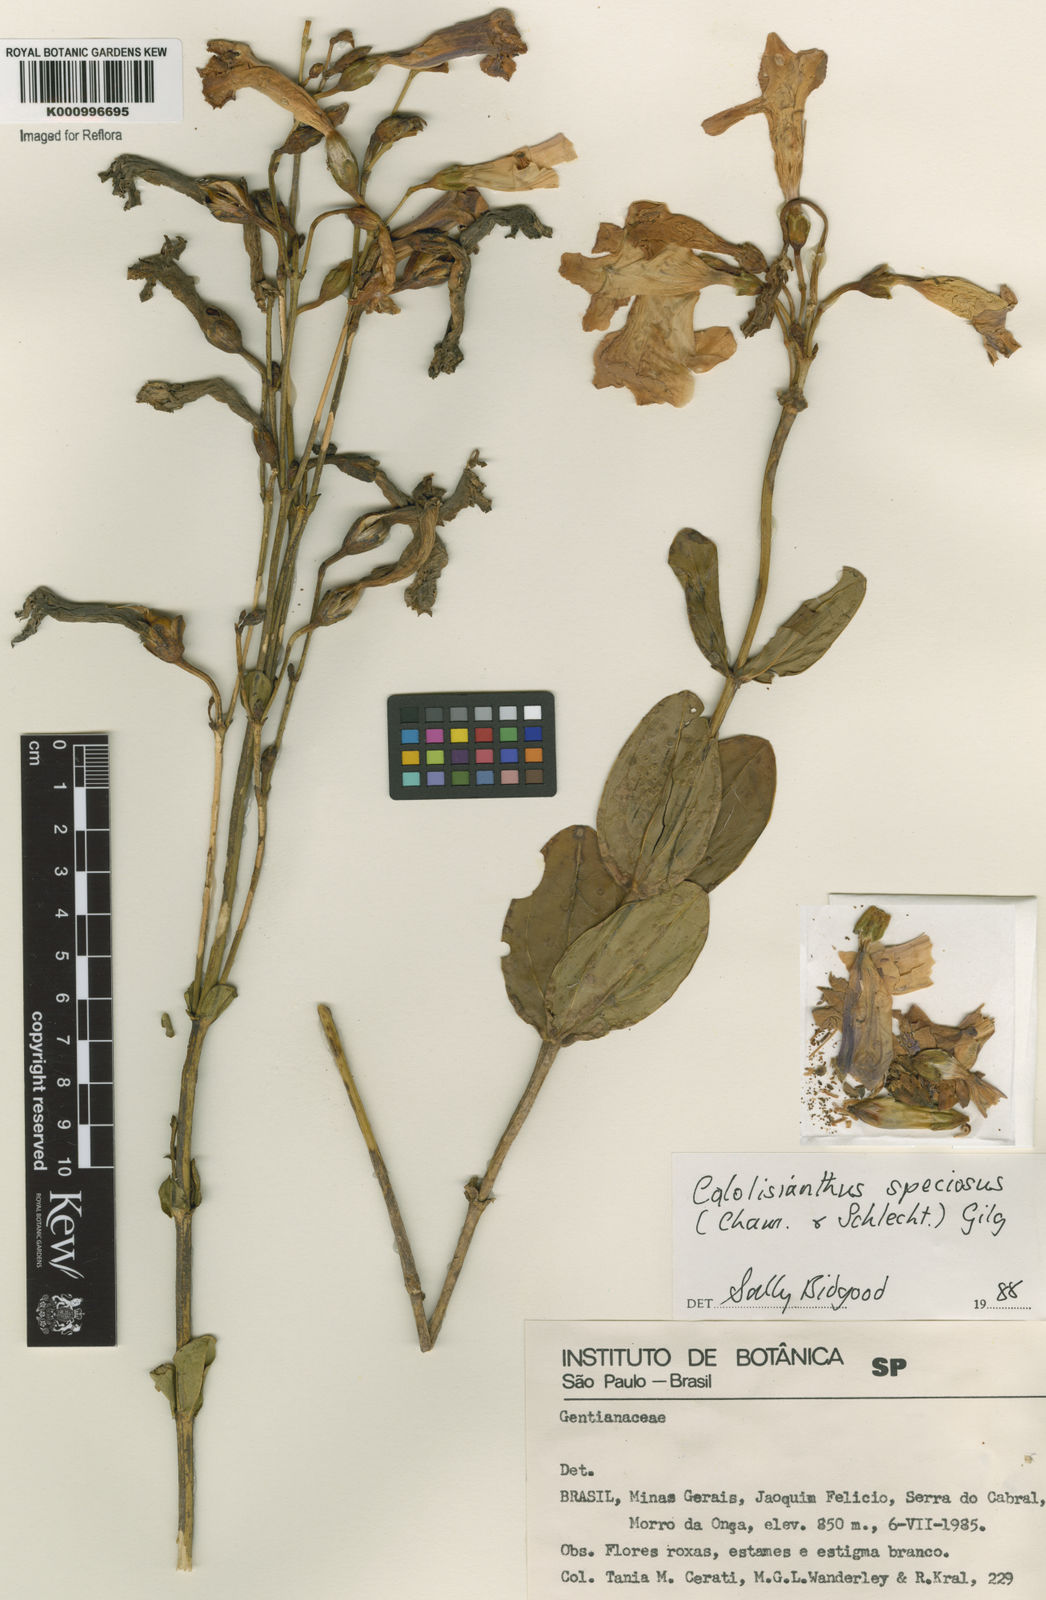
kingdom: Plantae
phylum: Tracheophyta
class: Magnoliopsida
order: Gentianales
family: Gentianaceae
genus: Calolisianthus
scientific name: Calolisianthus speciosus
